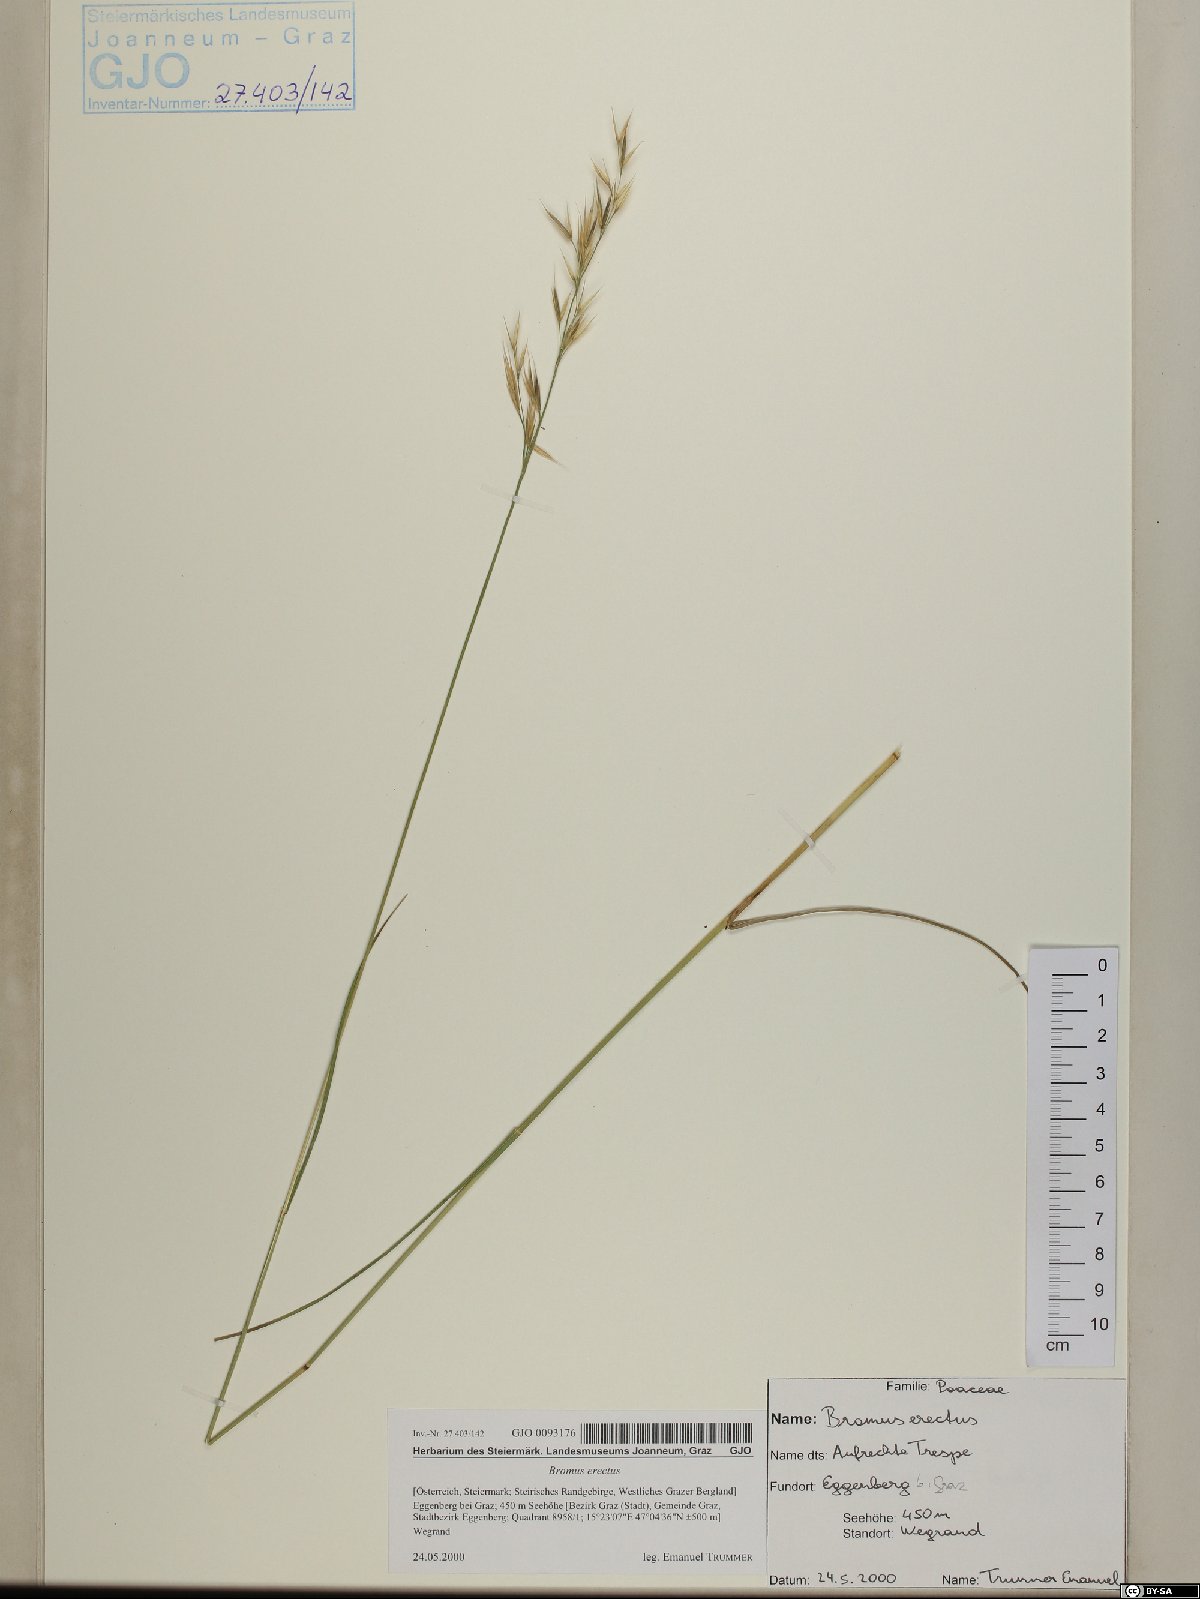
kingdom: Plantae
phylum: Tracheophyta
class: Liliopsida
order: Poales
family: Poaceae
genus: Bromus
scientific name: Bromus erectus
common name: Erect brome
